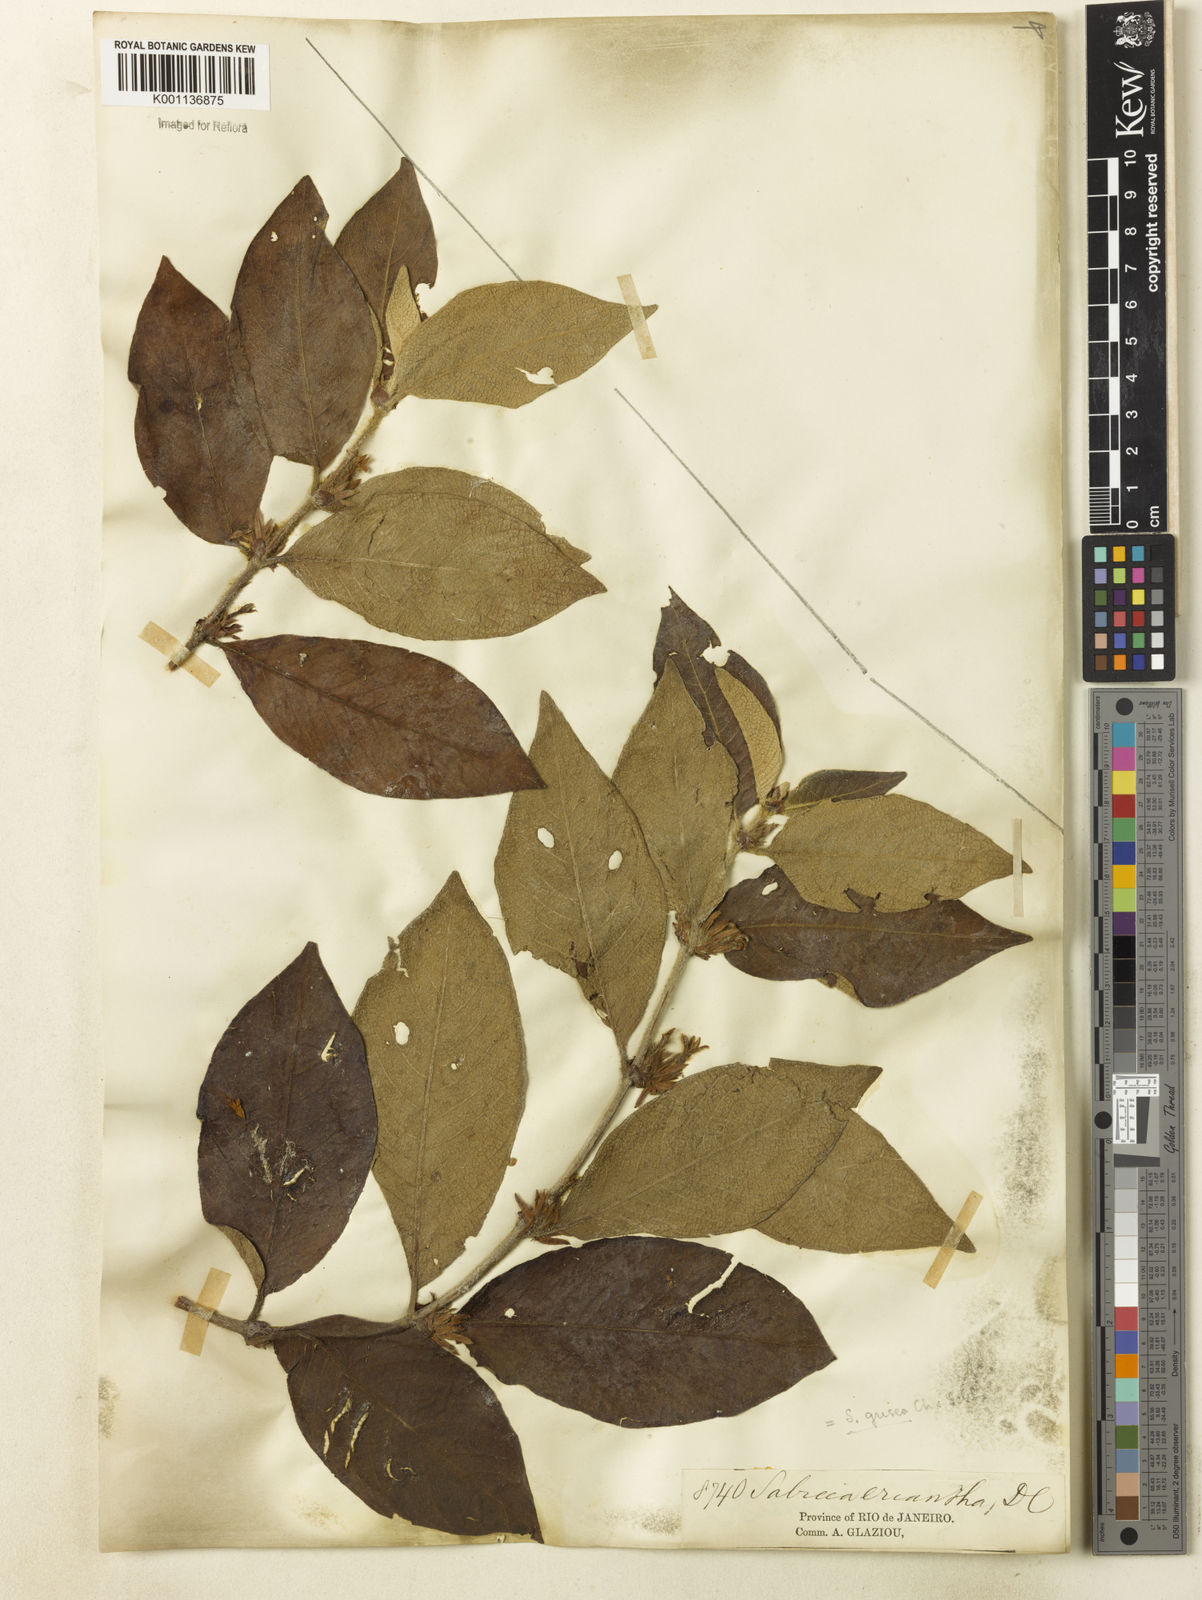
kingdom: Plantae
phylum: Tracheophyta
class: Magnoliopsida
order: Gentianales
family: Rubiaceae
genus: Sabicea
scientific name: Sabicea grisea
